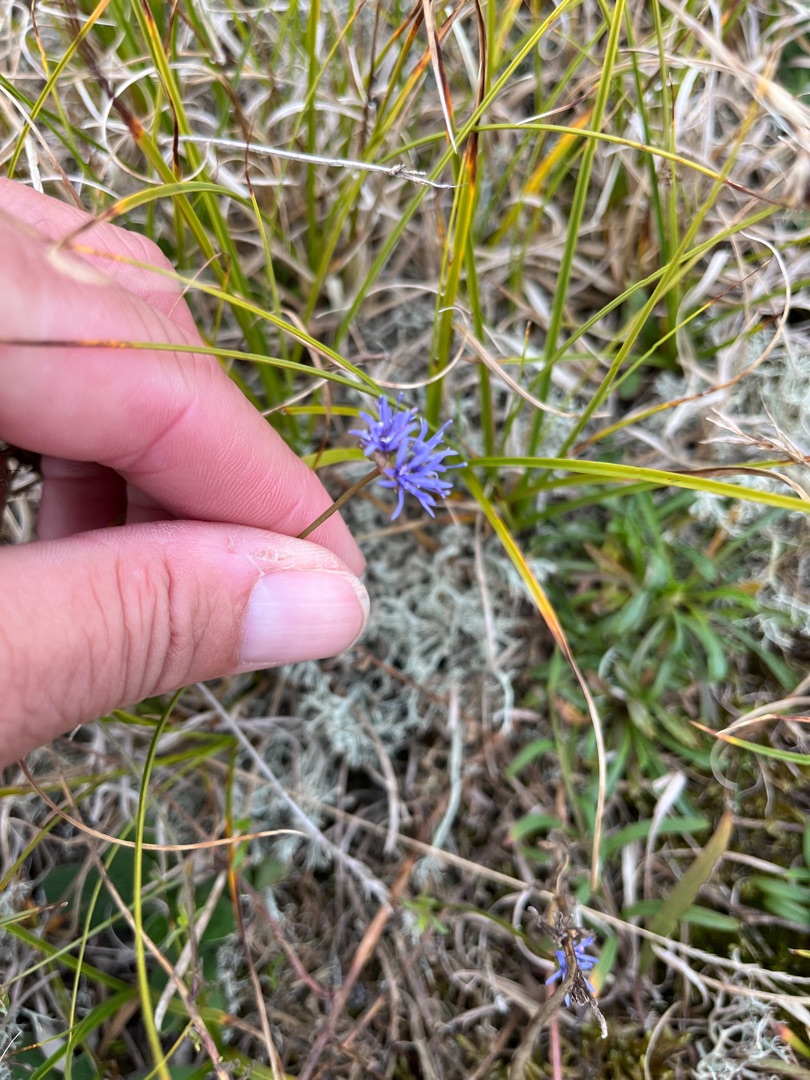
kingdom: Plantae
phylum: Tracheophyta
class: Magnoliopsida
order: Asterales
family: Campanulaceae
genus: Jasione
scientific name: Jasione montana
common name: Blåmunke
